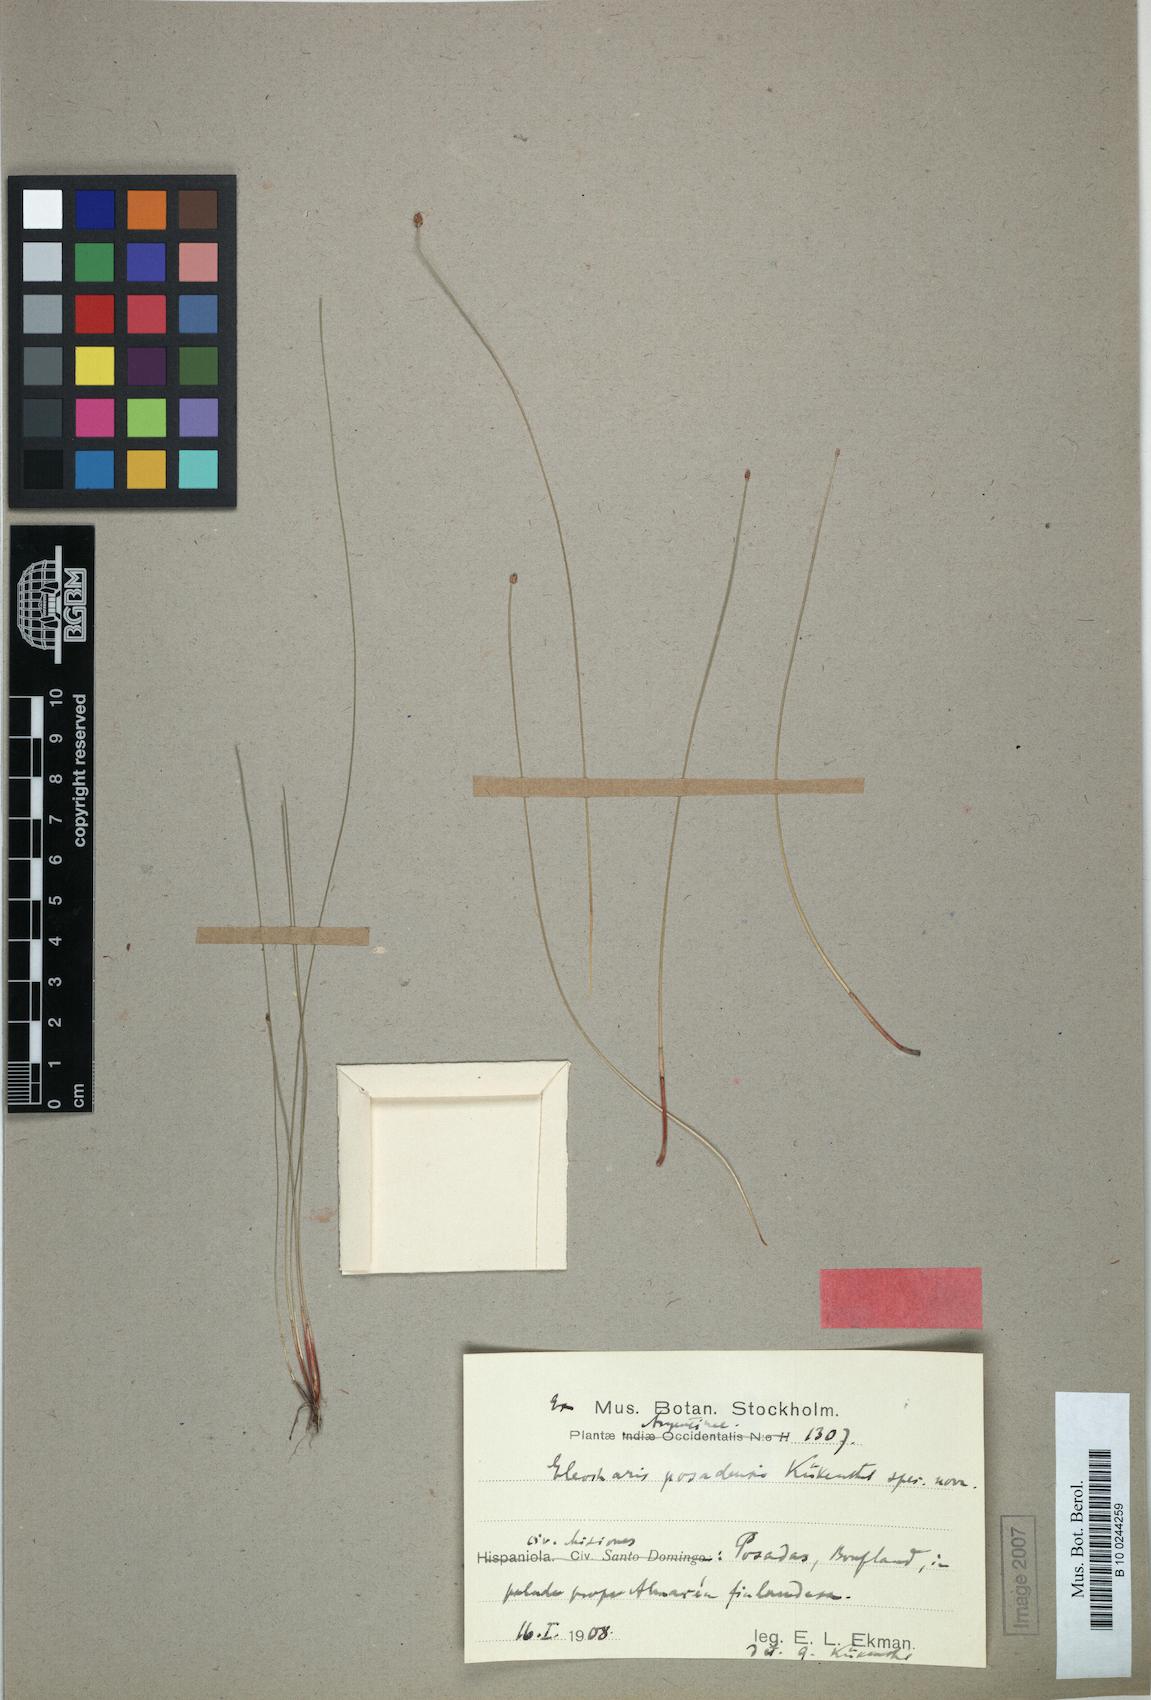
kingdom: Plantae
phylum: Tracheophyta
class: Liliopsida
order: Poales
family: Cyperaceae
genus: Eleocharis
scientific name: Eleocharis contracta
